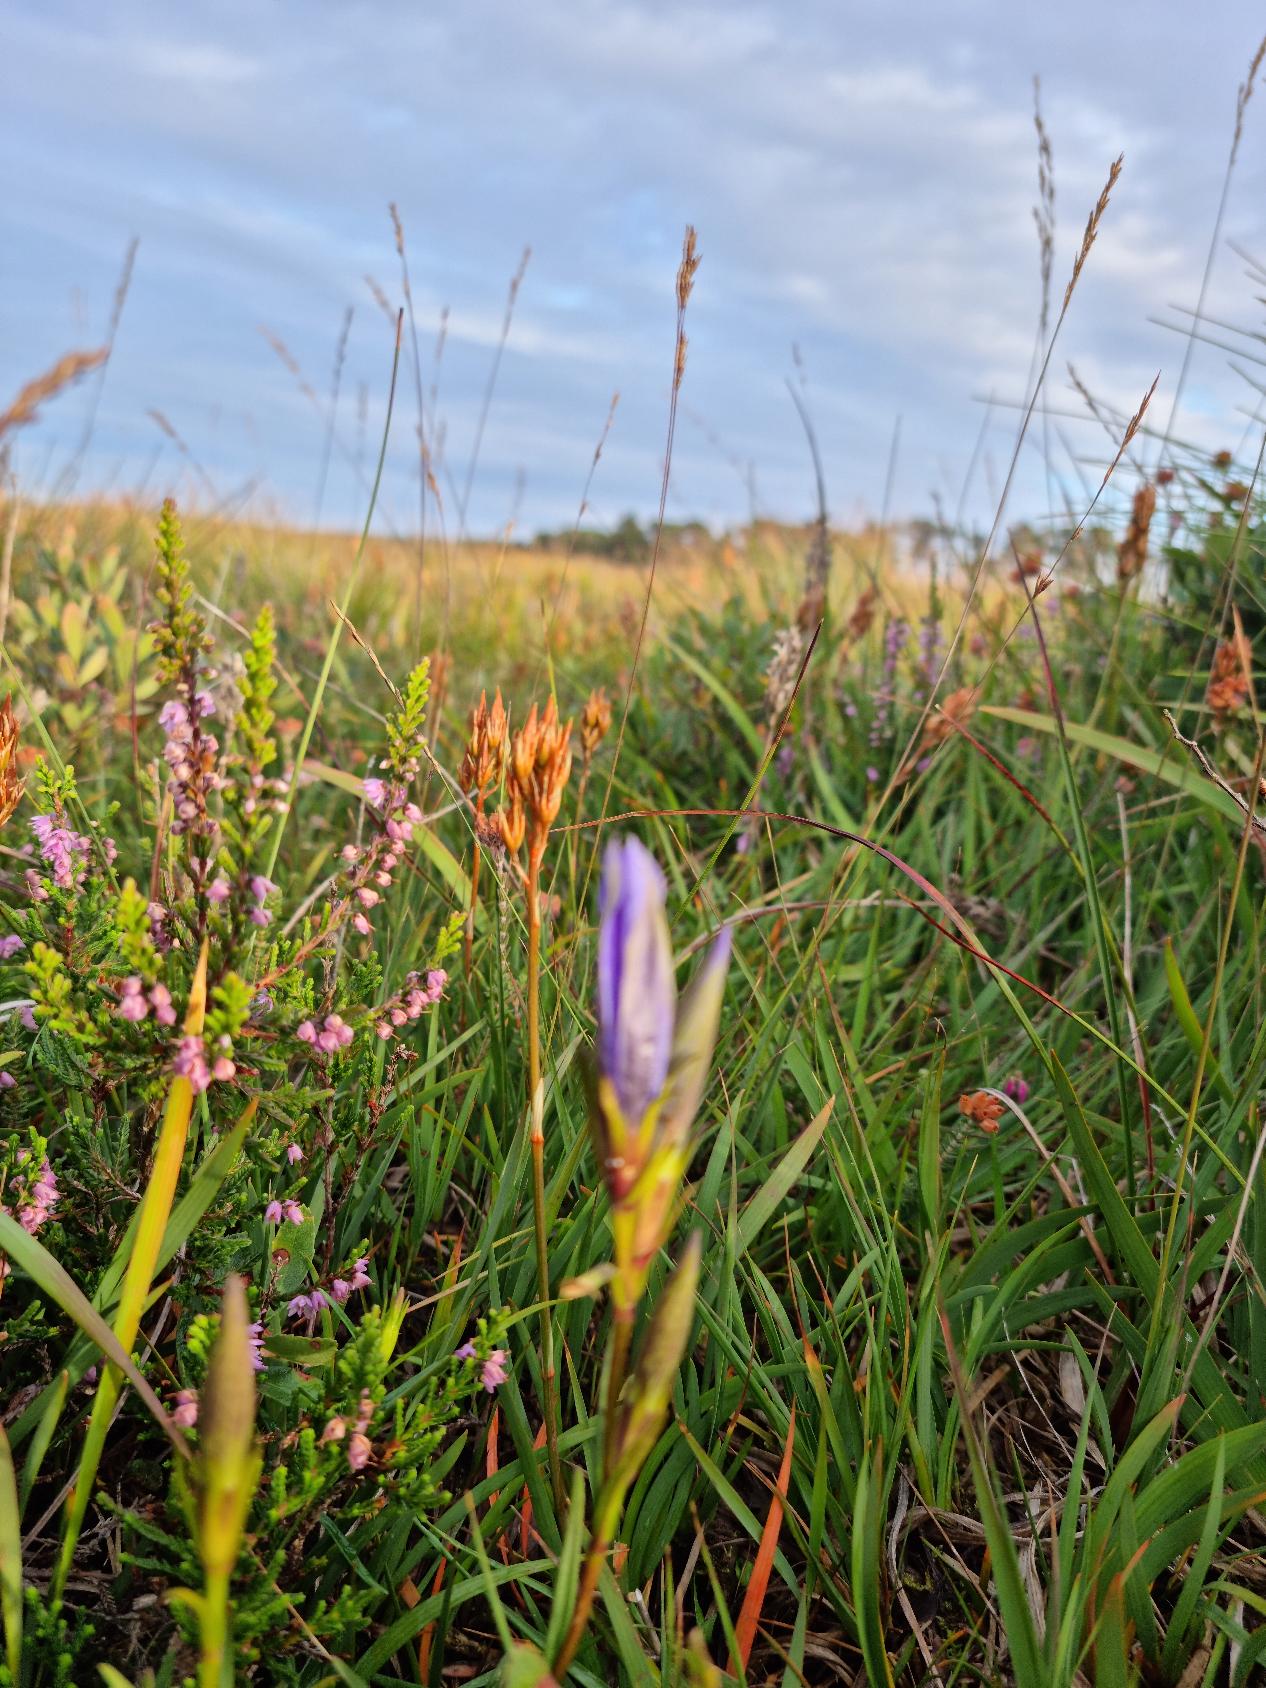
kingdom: Plantae
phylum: Tracheophyta
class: Magnoliopsida
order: Gentianales
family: Gentianaceae
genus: Gentiana
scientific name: Gentiana pneumonanthe
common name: Klokke-ensian
